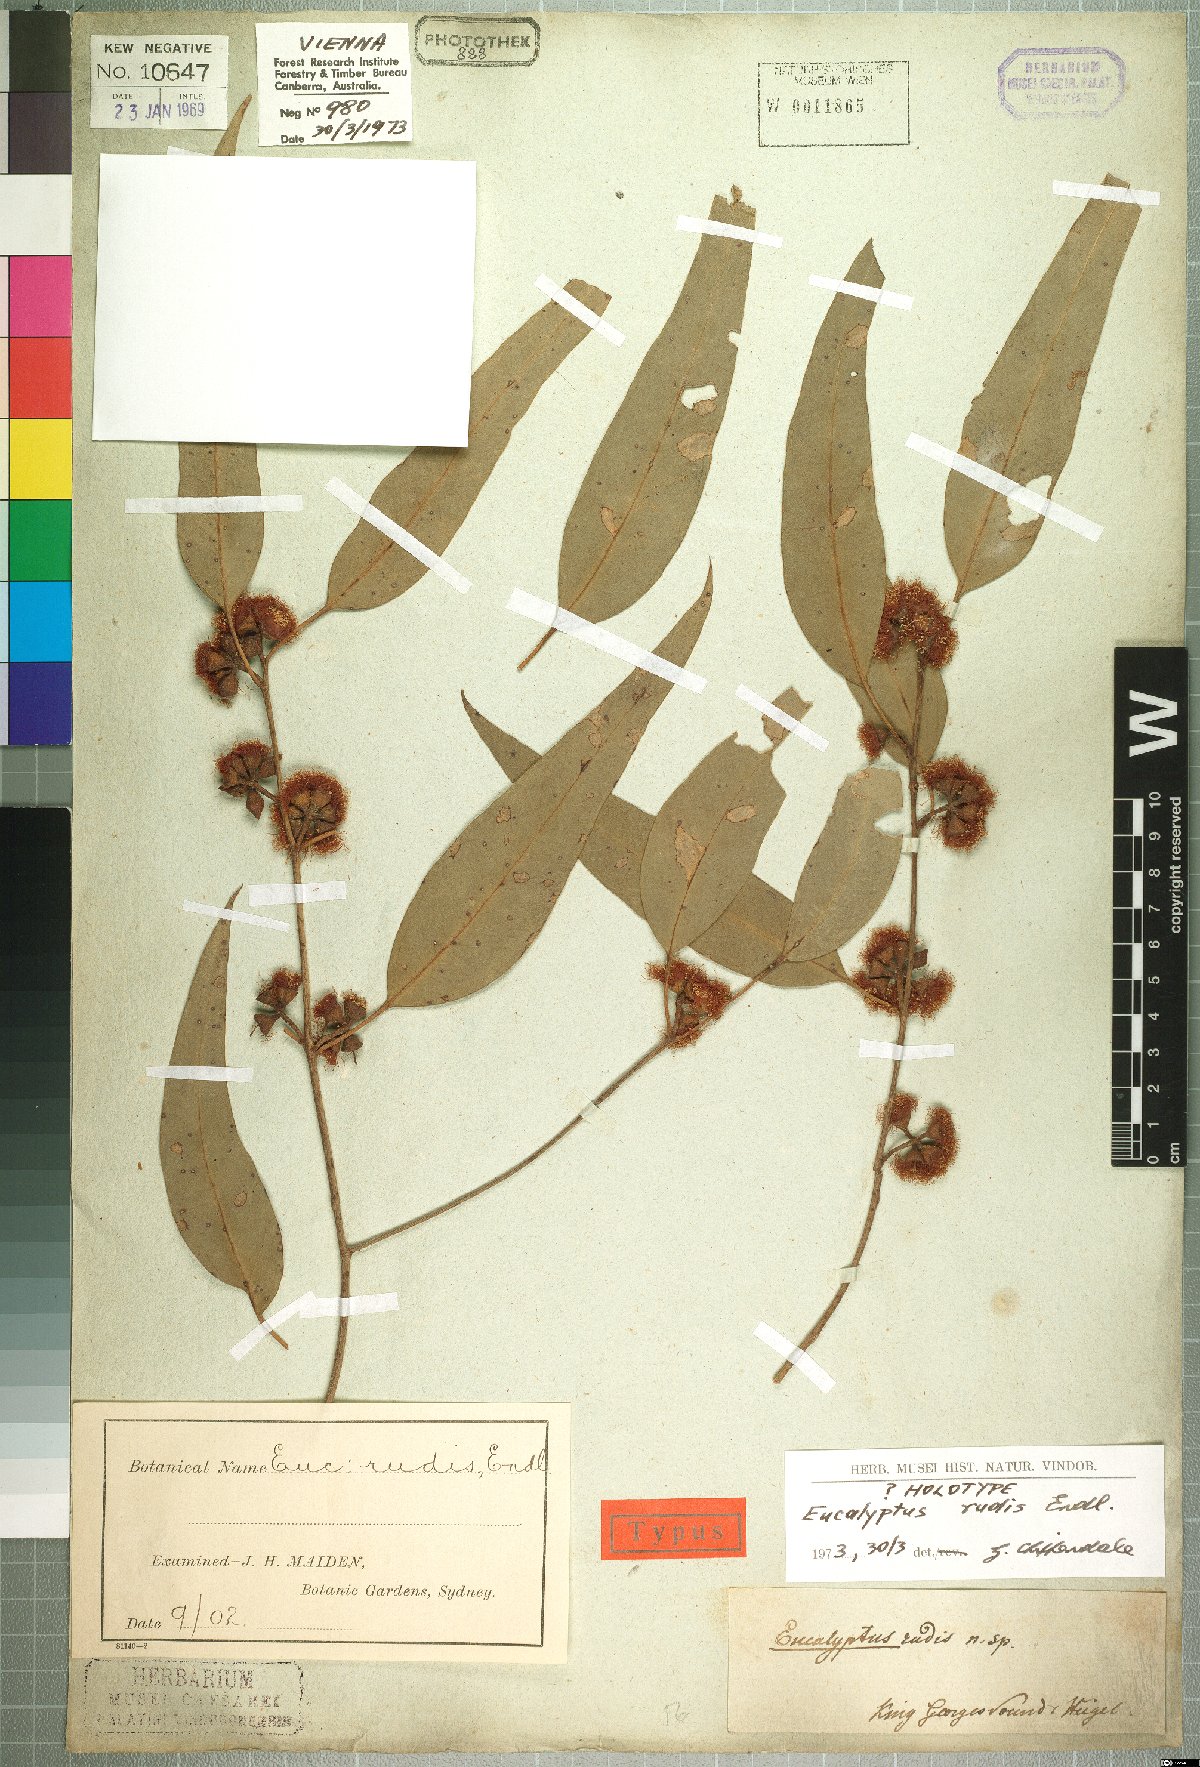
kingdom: Plantae
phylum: Tracheophyta
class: Magnoliopsida
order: Myrtales
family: Myrtaceae
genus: Eucalyptus
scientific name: Eucalyptus rudis
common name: Flooded gum
